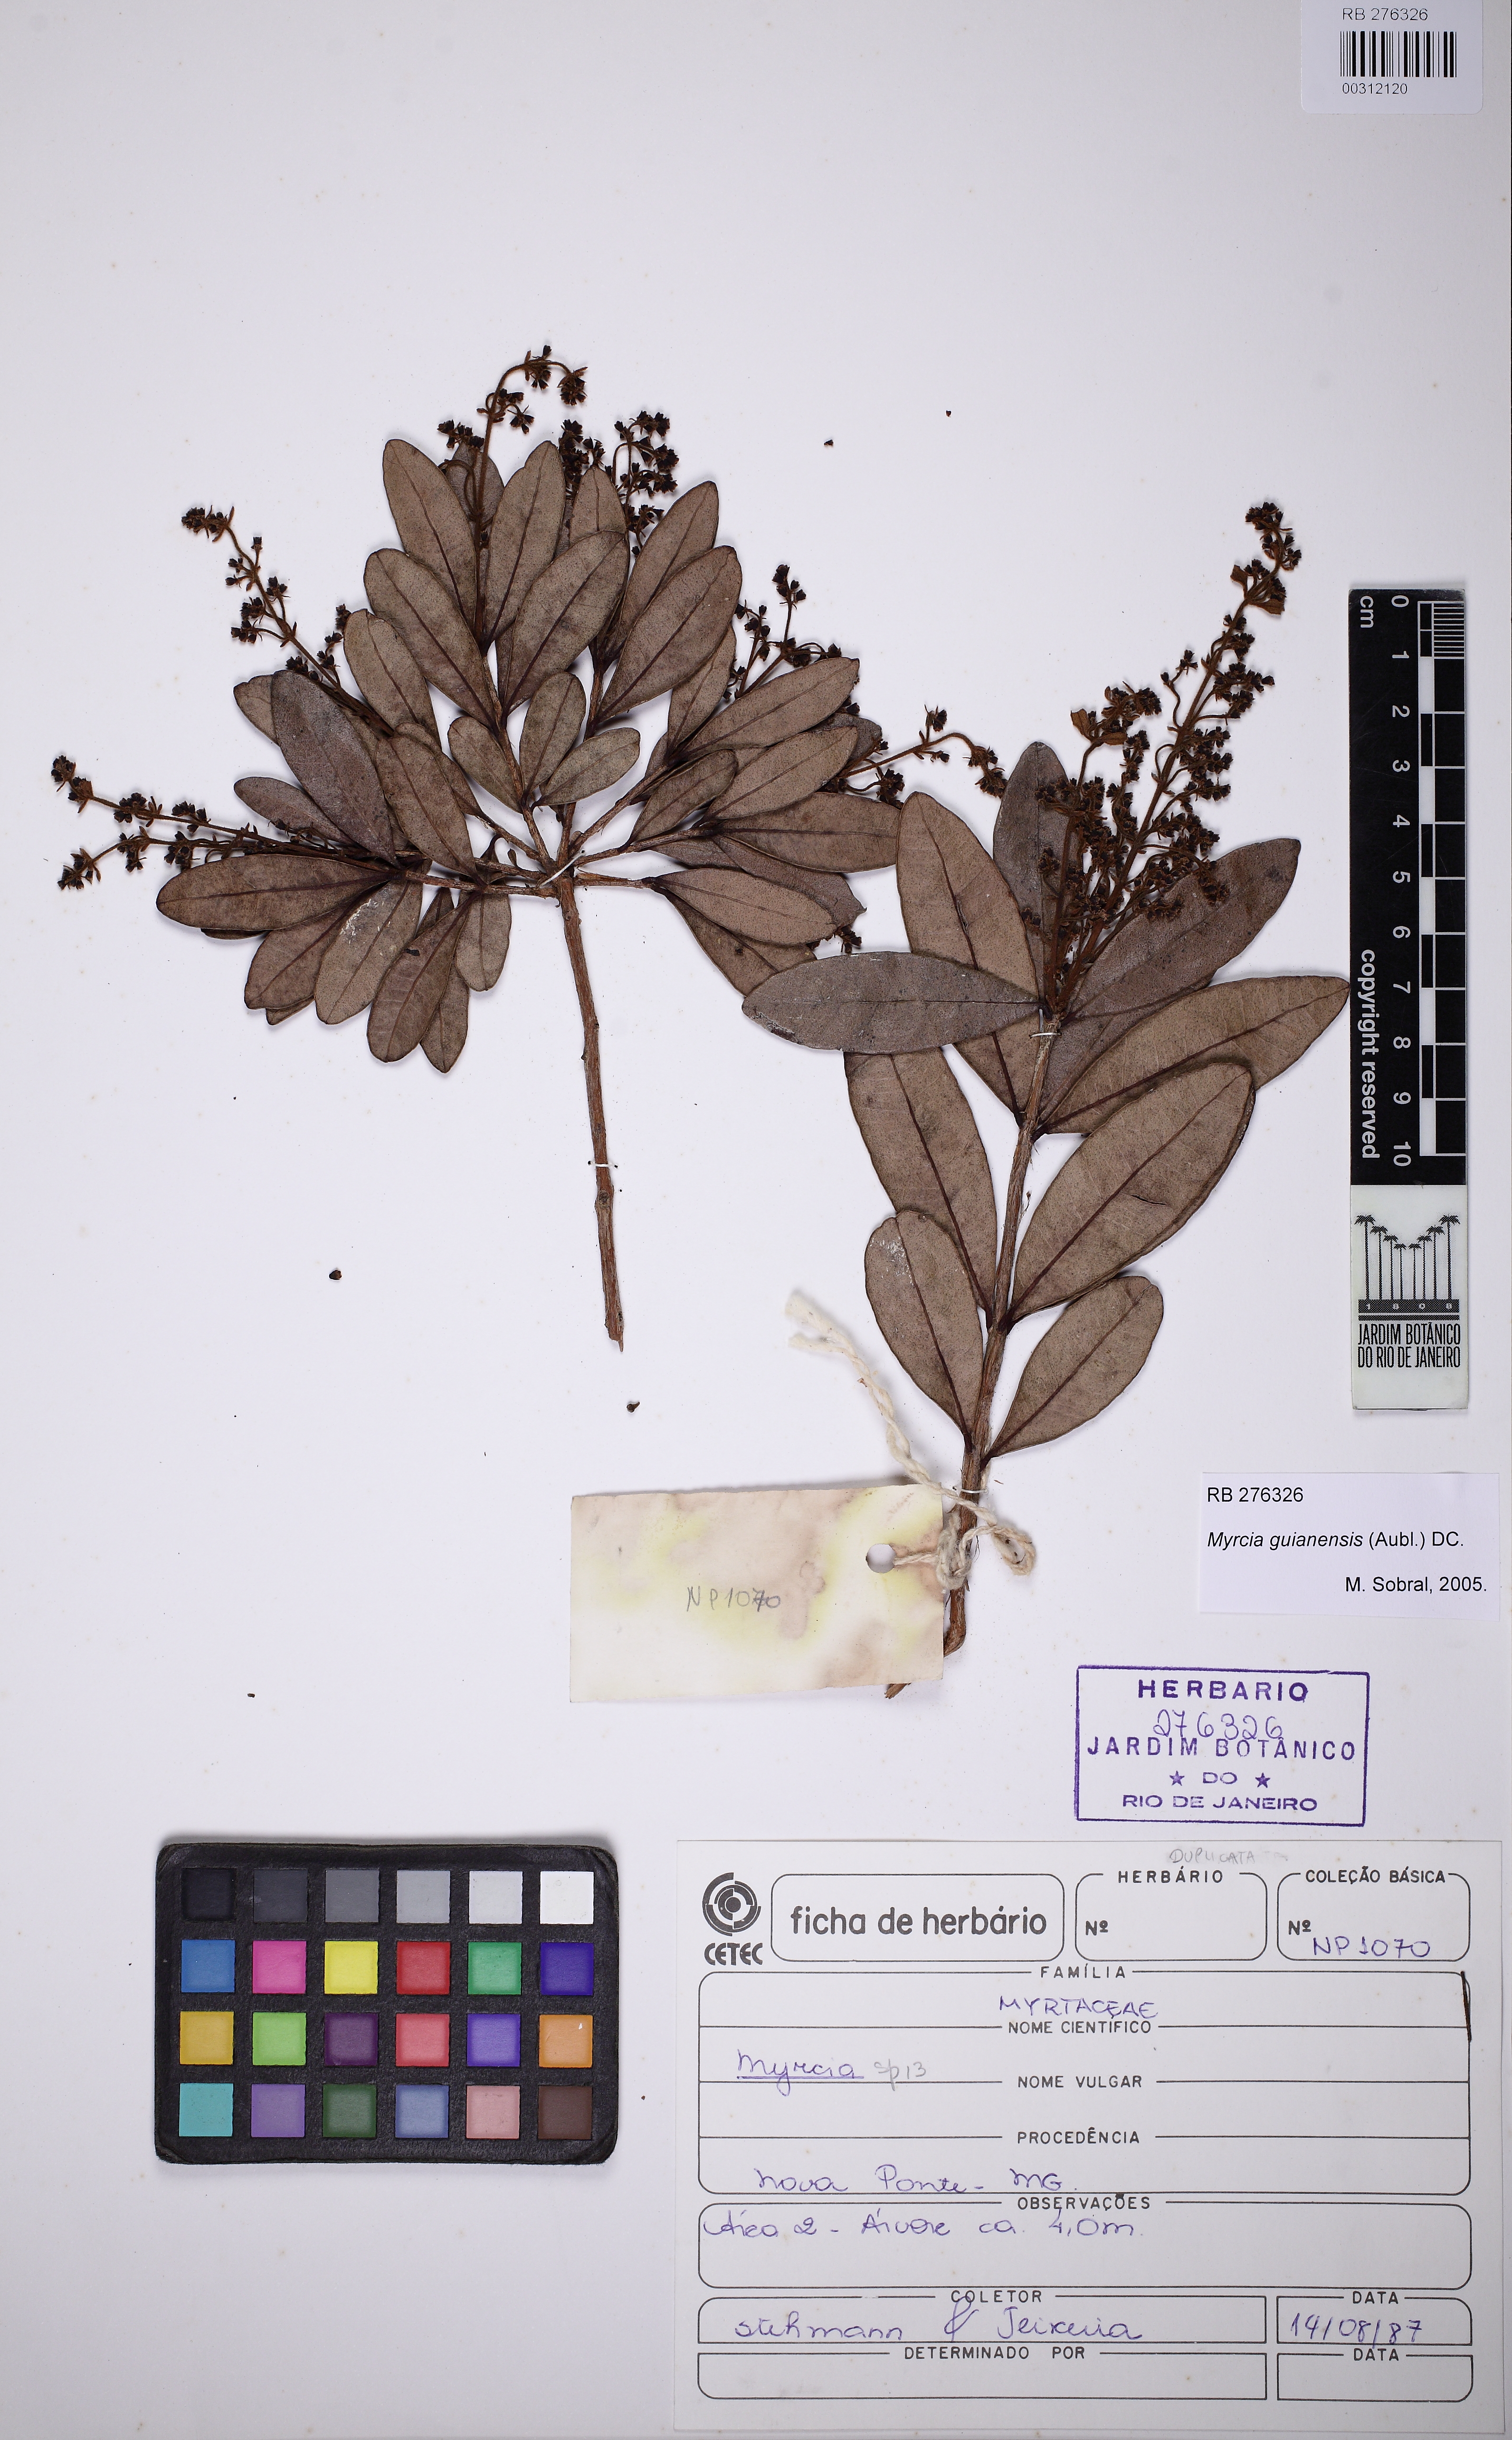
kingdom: Plantae
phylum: Tracheophyta
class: Magnoliopsida
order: Myrtales
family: Myrtaceae
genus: Myrcia
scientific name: Myrcia guianensis
